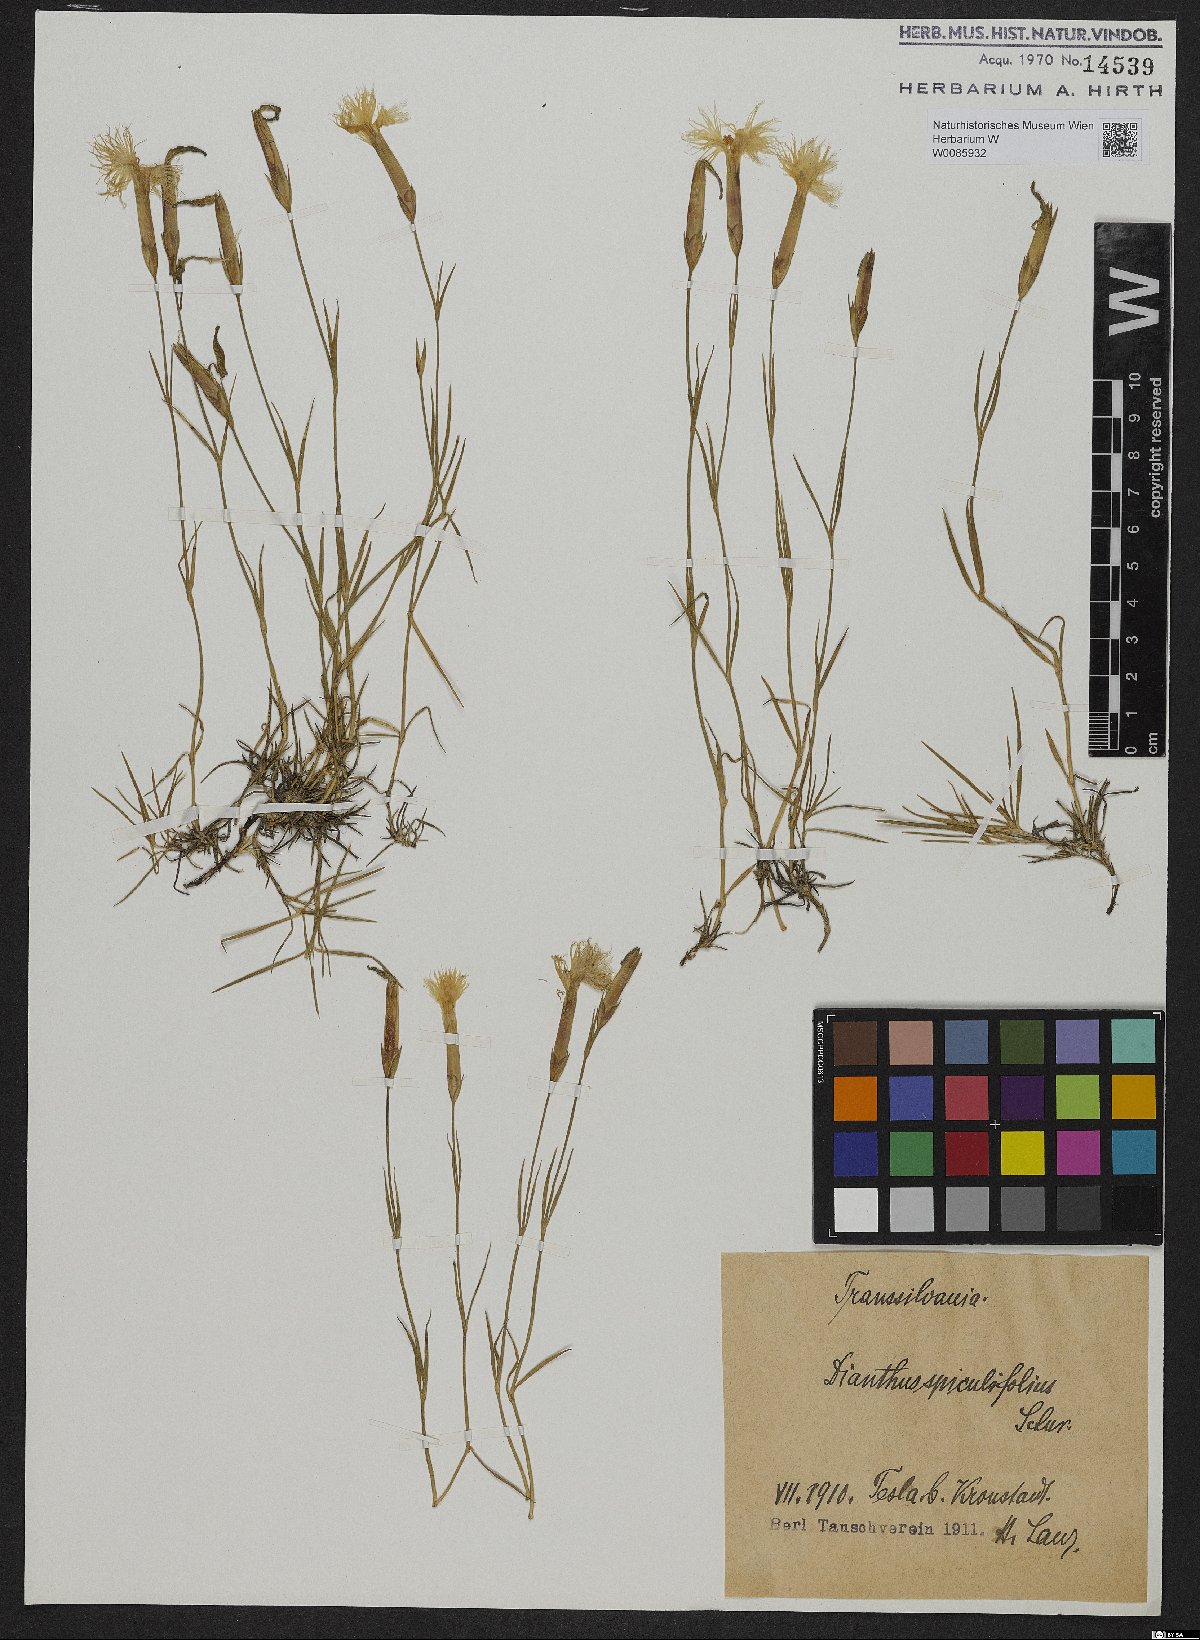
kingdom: Plantae
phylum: Tracheophyta
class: Magnoliopsida
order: Caryophyllales
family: Caryophyllaceae
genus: Dianthus
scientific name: Dianthus spiculifolius
